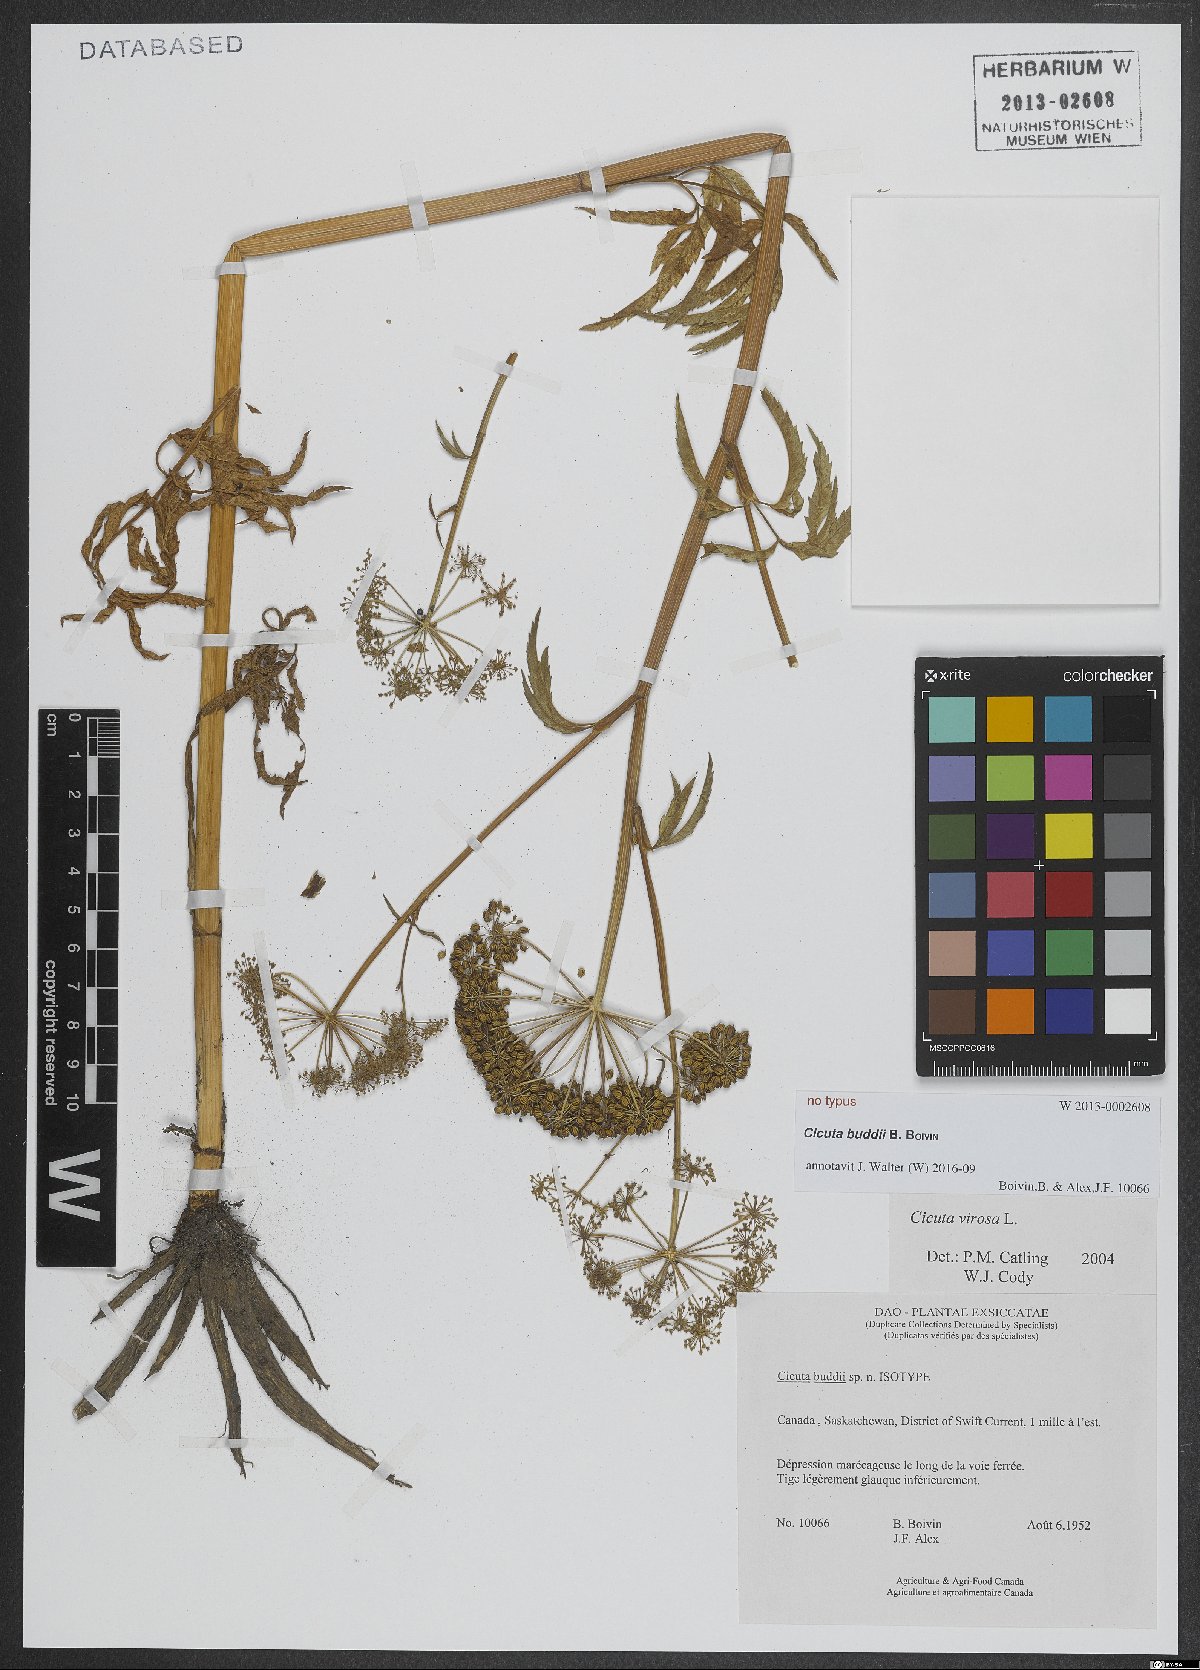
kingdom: Plantae
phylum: Tracheophyta
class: Magnoliopsida
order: Apiales
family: Apiaceae
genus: Cicuta
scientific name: Cicuta virosa
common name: Cowbane
